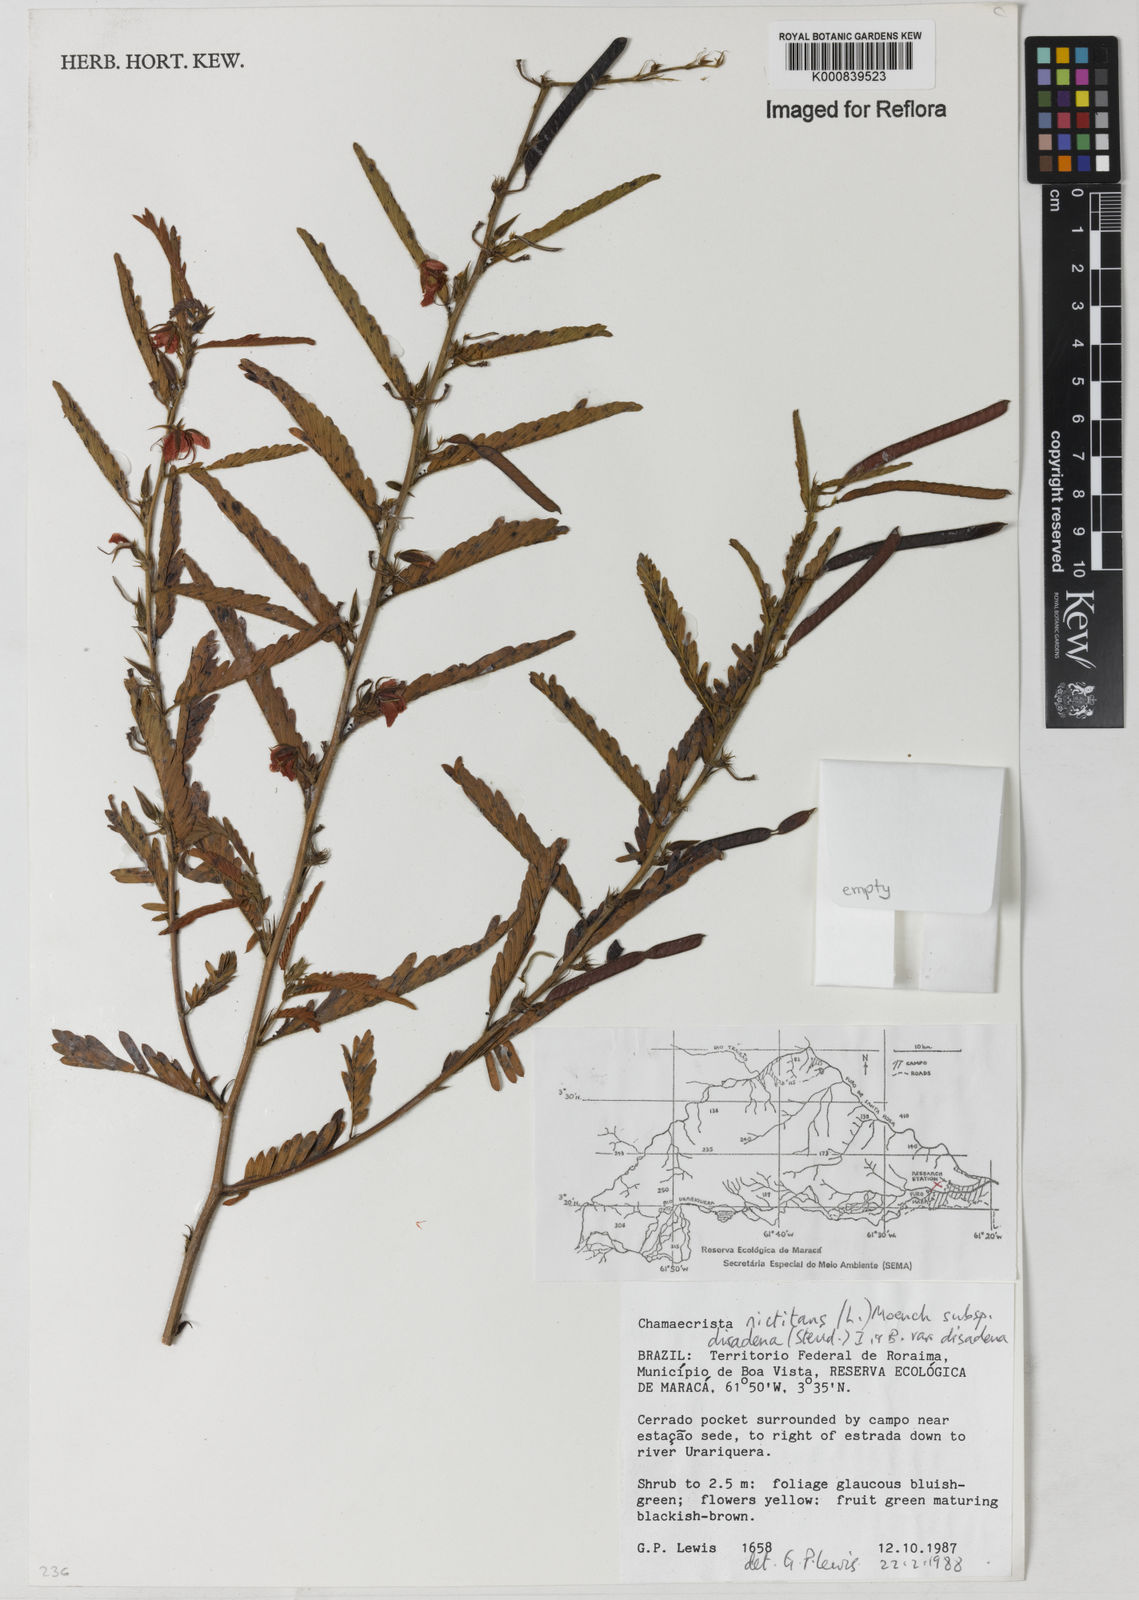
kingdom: Plantae
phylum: Tracheophyta
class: Magnoliopsida
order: Fabales
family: Fabaceae
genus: Chamaecrista
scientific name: Chamaecrista nictitans
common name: Sensitive cassia
